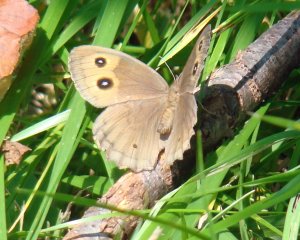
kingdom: Animalia
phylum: Arthropoda
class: Insecta
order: Lepidoptera
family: Nymphalidae
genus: Cercyonis
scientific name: Cercyonis pegala
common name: Common Wood-Nymph
